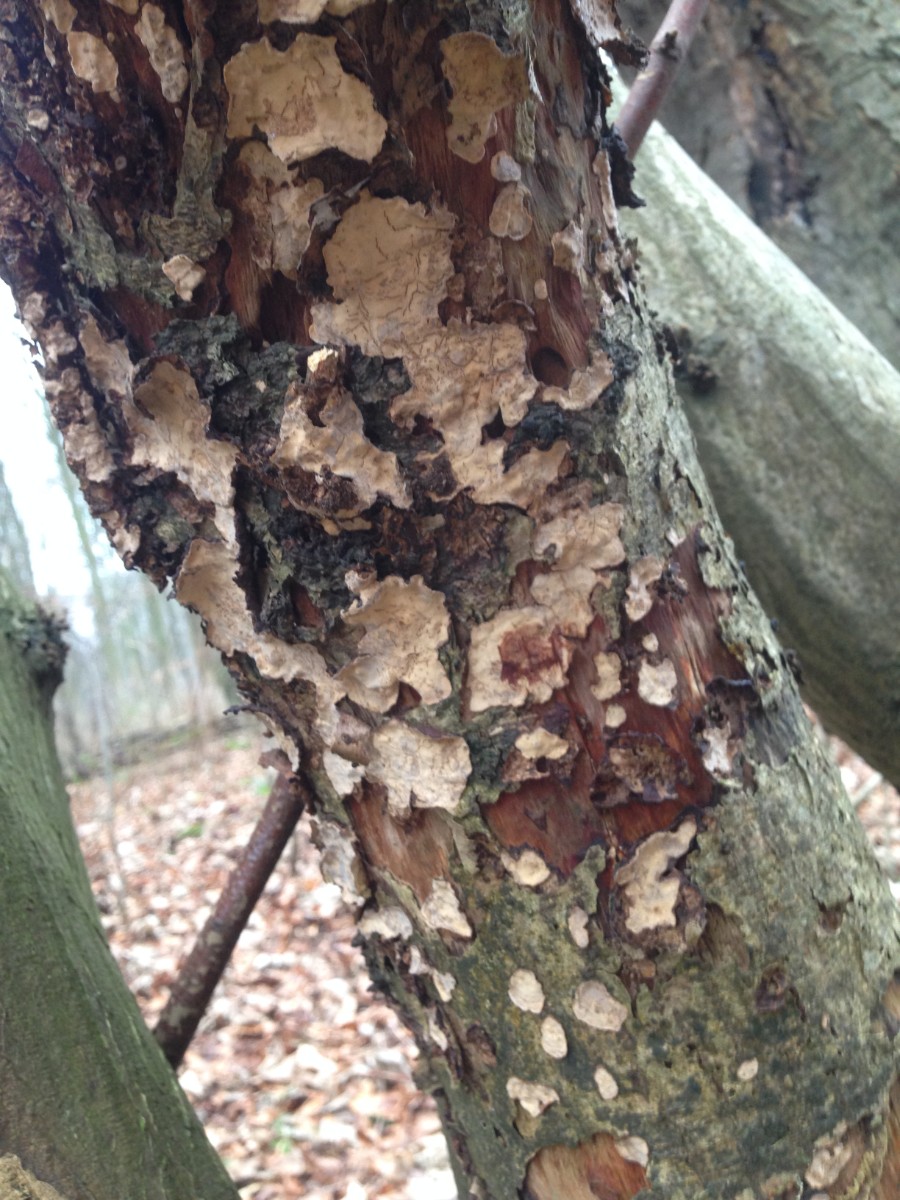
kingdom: Fungi
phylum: Basidiomycota
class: Agaricomycetes
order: Russulales
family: Stereaceae
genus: Stereum
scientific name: Stereum rugosum
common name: rynket lædersvamp
